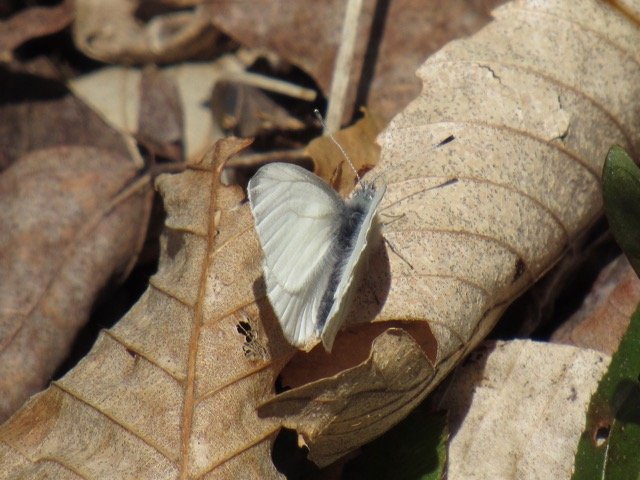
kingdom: Animalia
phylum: Arthropoda
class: Insecta
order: Lepidoptera
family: Pieridae
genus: Pieris
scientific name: Pieris
